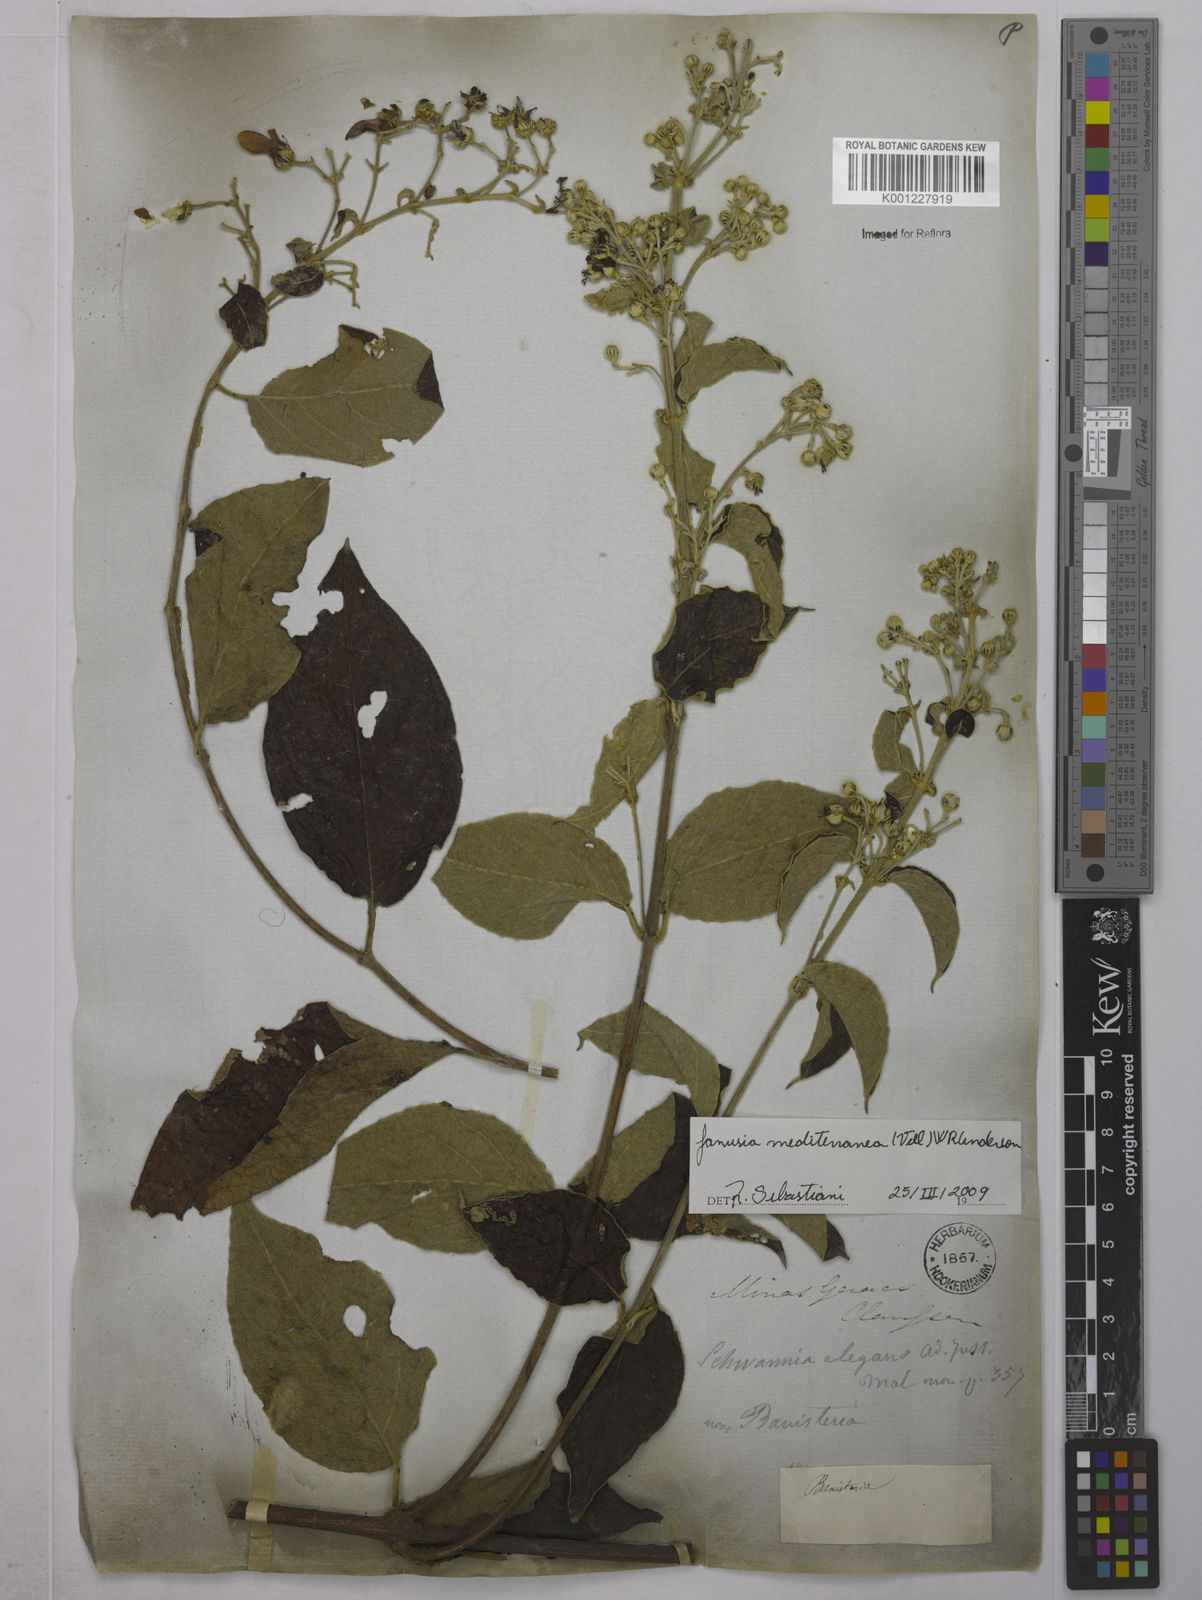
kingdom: Plantae
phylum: Tracheophyta
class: Magnoliopsida
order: Malpighiales
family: Malpighiaceae
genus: Janusia
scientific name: Janusia mediterranea
